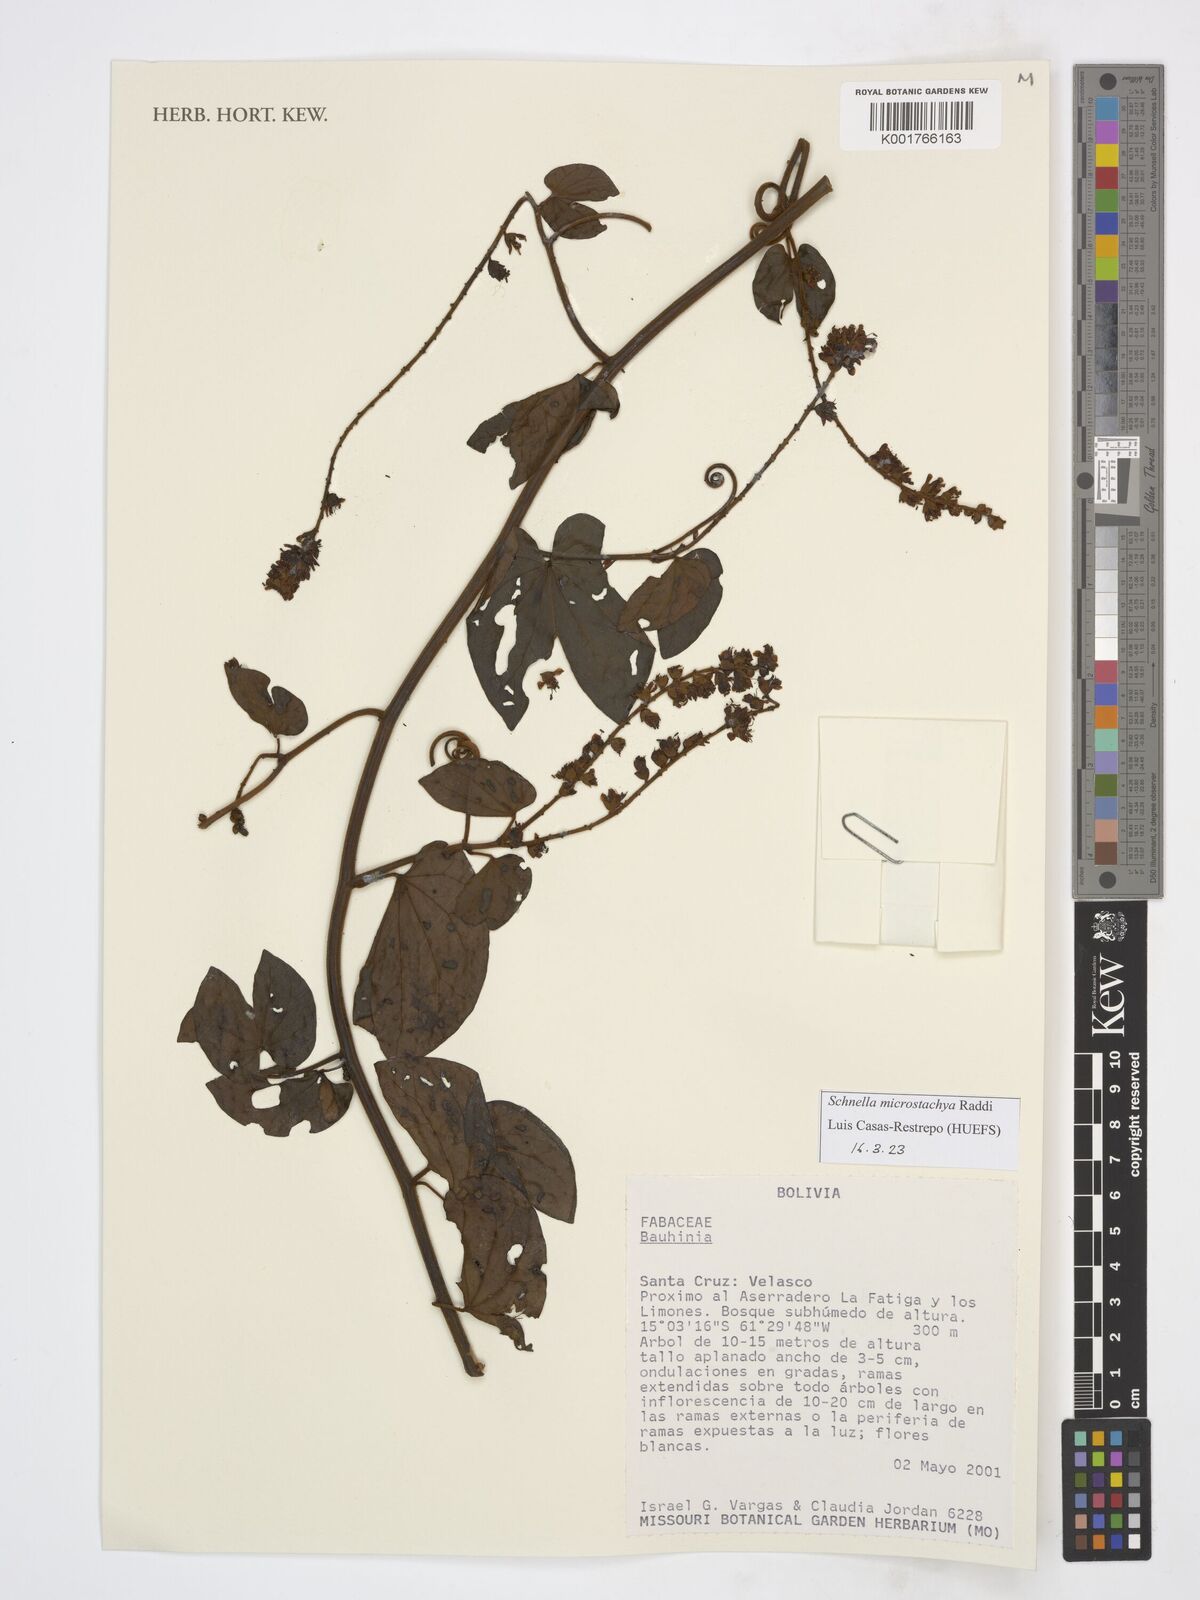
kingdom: Plantae
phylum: Tracheophyta
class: Magnoliopsida
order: Fabales
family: Fabaceae
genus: Schnella
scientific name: Schnella microstachya
